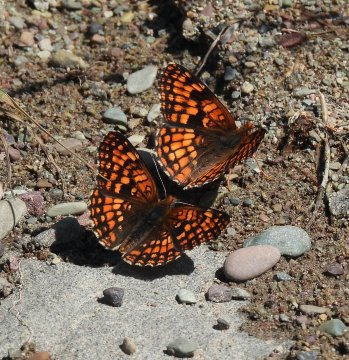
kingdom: Animalia
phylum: Arthropoda
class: Insecta
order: Lepidoptera
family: Nymphalidae
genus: Chlosyne
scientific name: Chlosyne palla
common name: Northern Checkerspot
